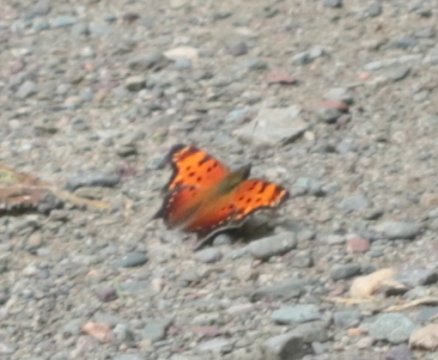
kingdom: Animalia
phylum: Arthropoda
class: Insecta
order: Lepidoptera
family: Nymphalidae
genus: Polygonia
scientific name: Polygonia progne
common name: Gray Comma
